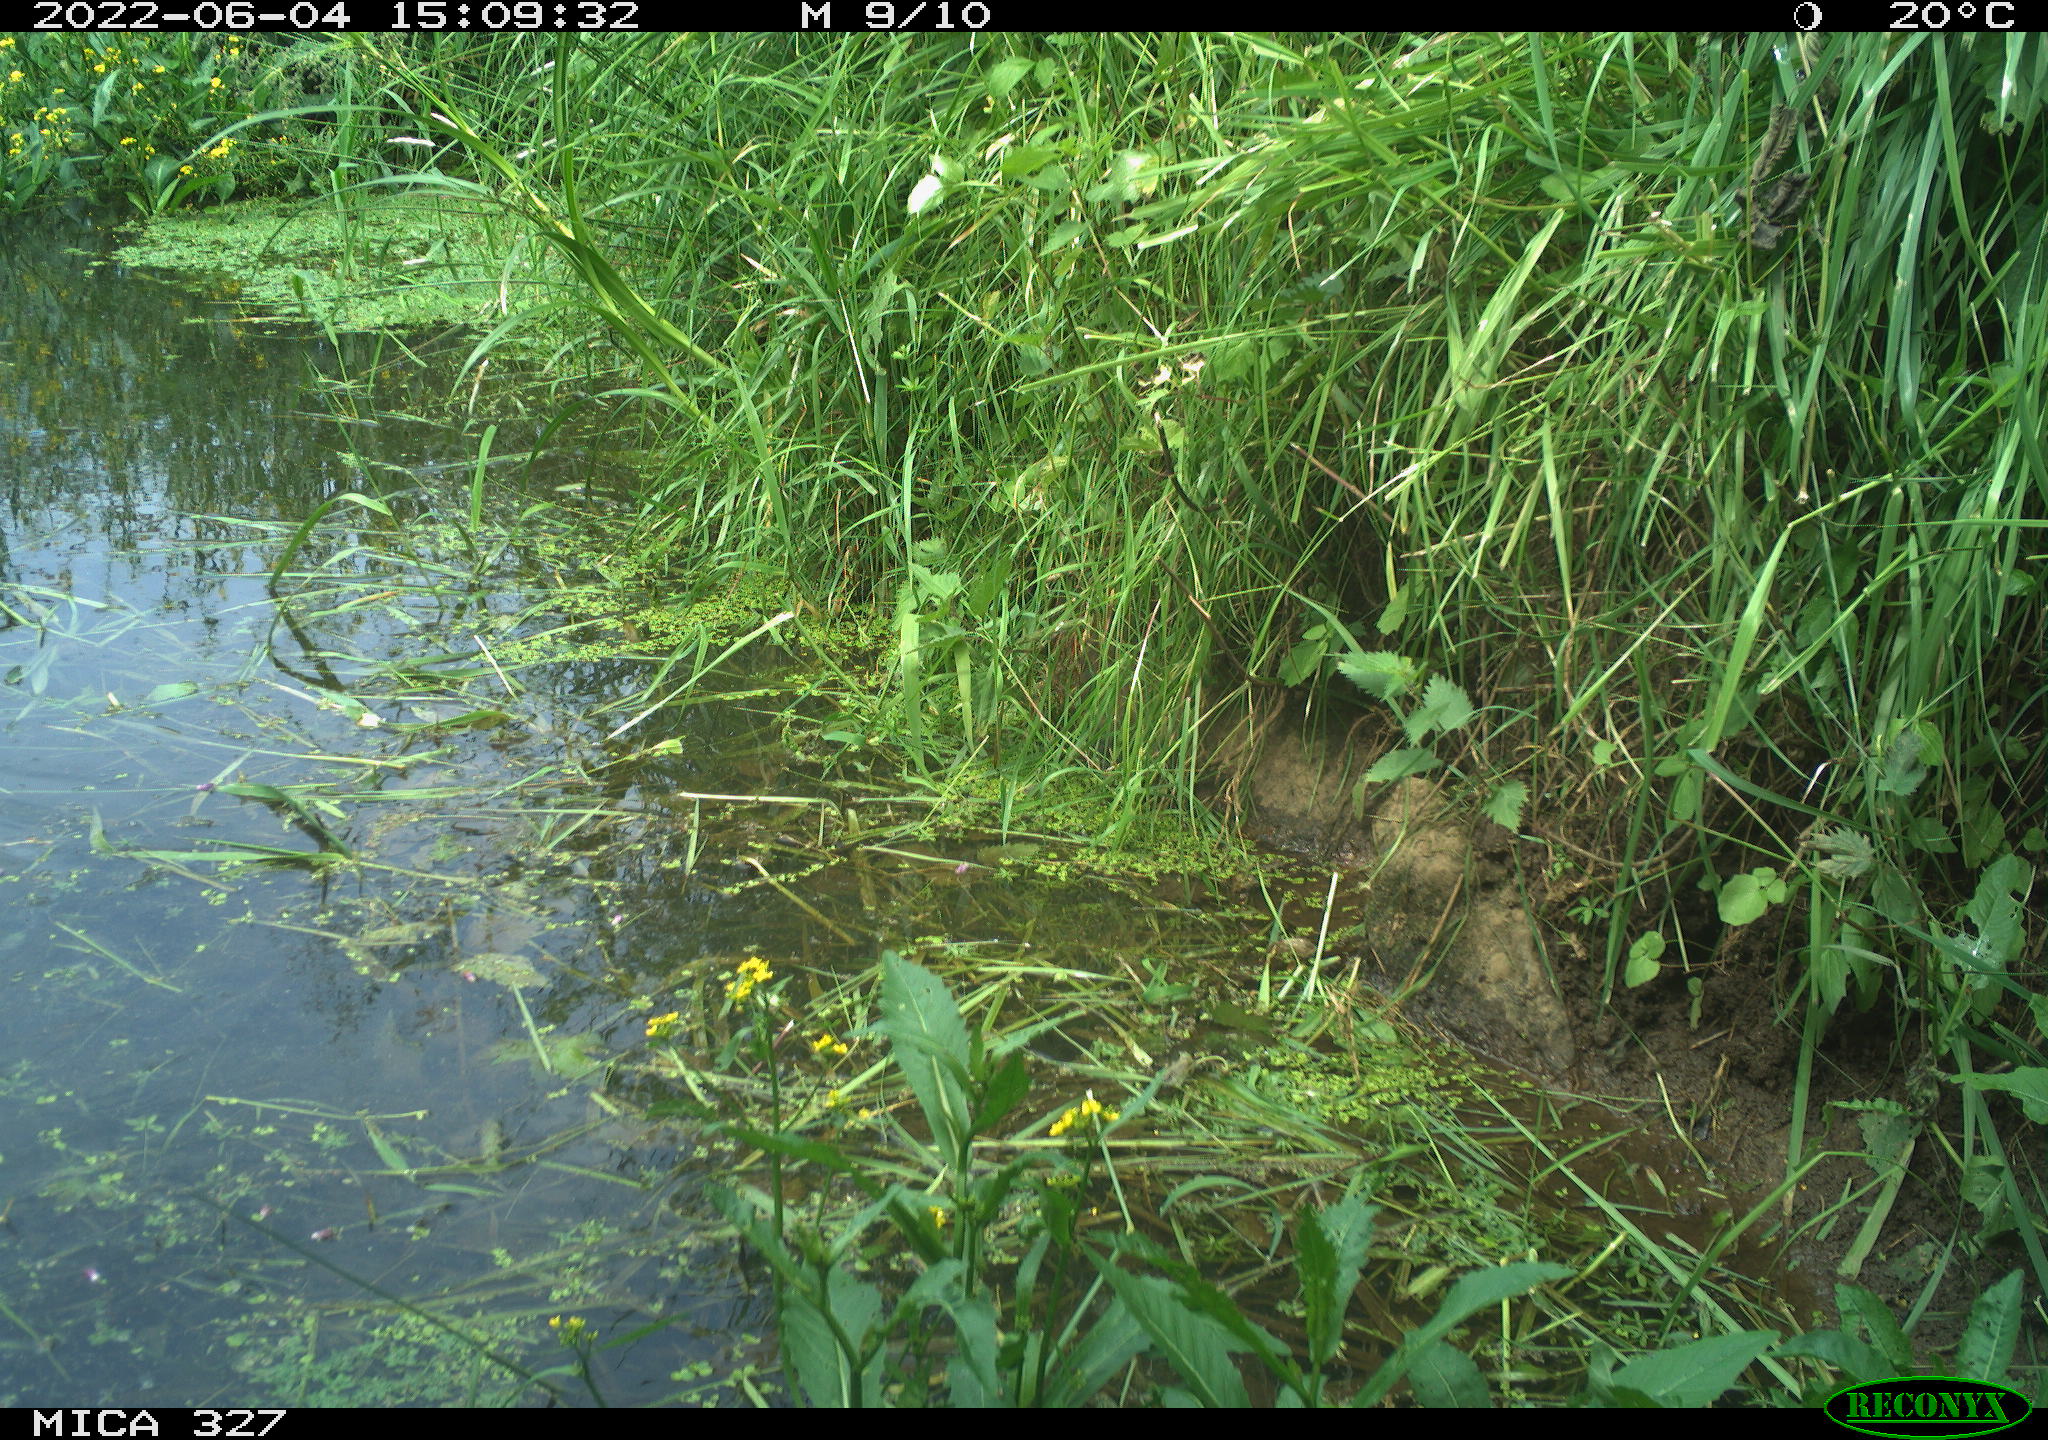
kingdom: Animalia
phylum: Chordata
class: Aves
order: Gruiformes
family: Rallidae
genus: Gallinula
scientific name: Gallinula chloropus
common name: Common moorhen
